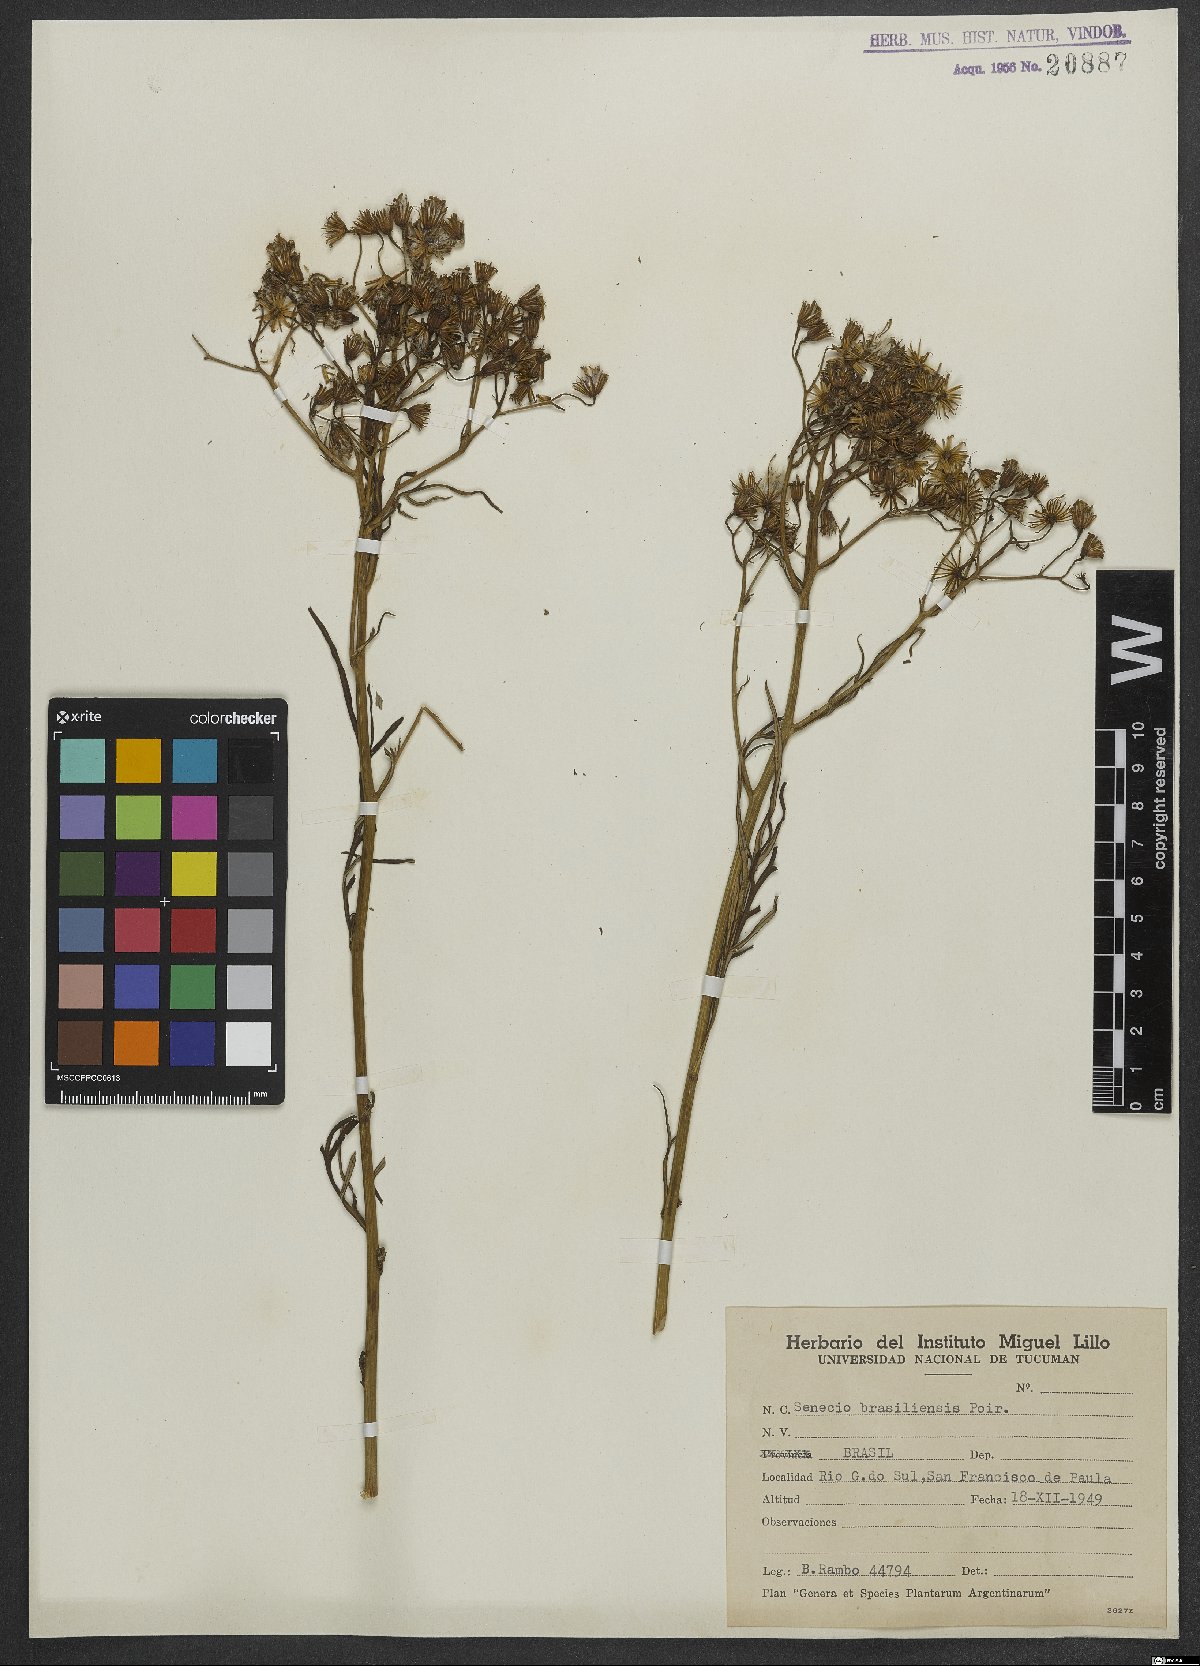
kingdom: Plantae
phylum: Tracheophyta
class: Magnoliopsida
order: Asterales
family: Asteraceae
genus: Senecio
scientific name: Senecio brasiliensis
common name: Hemp-leaf ragwort
